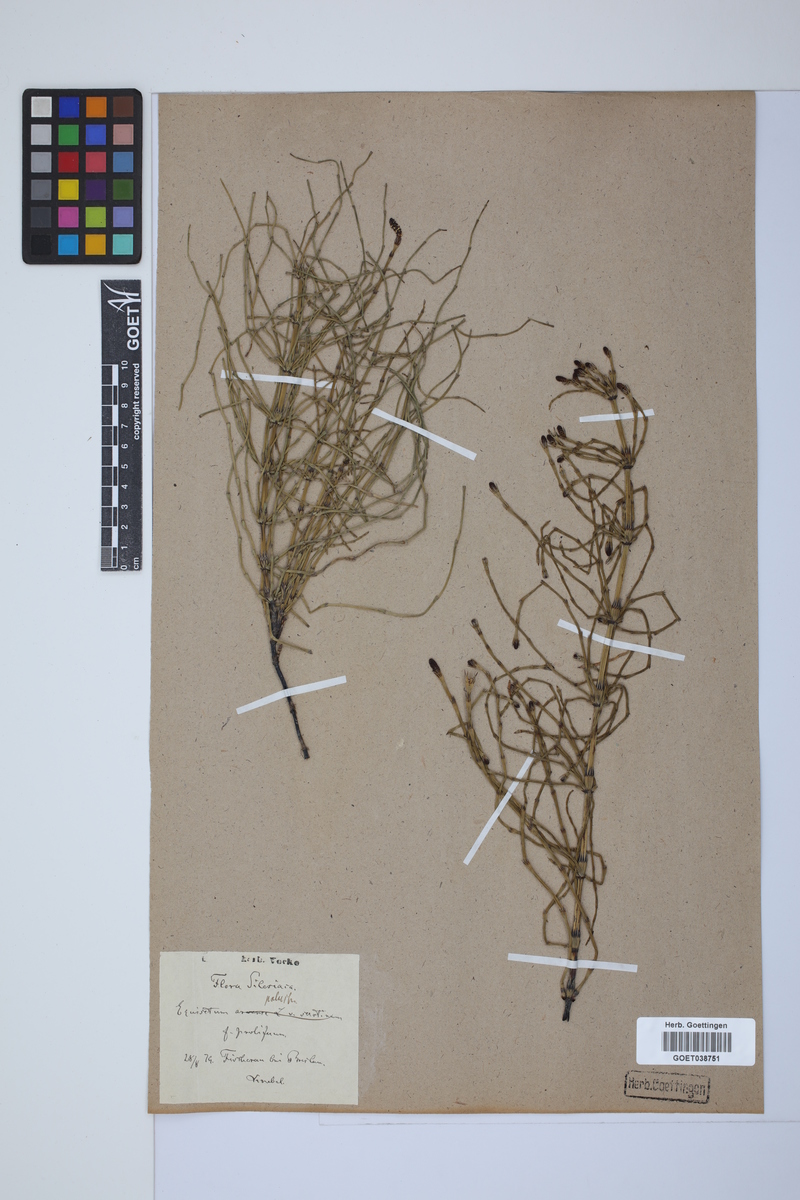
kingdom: Plantae
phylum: Tracheophyta
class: Polypodiopsida
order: Equisetales
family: Equisetaceae
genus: Equisetum
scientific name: Equisetum palustre
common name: Marsh horsetail
